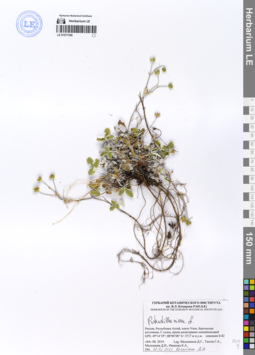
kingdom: Plantae
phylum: Tracheophyta
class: Magnoliopsida
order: Rosales
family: Rosaceae
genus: Potentilla
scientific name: Potentilla nivea
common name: Snow cinquefoil
